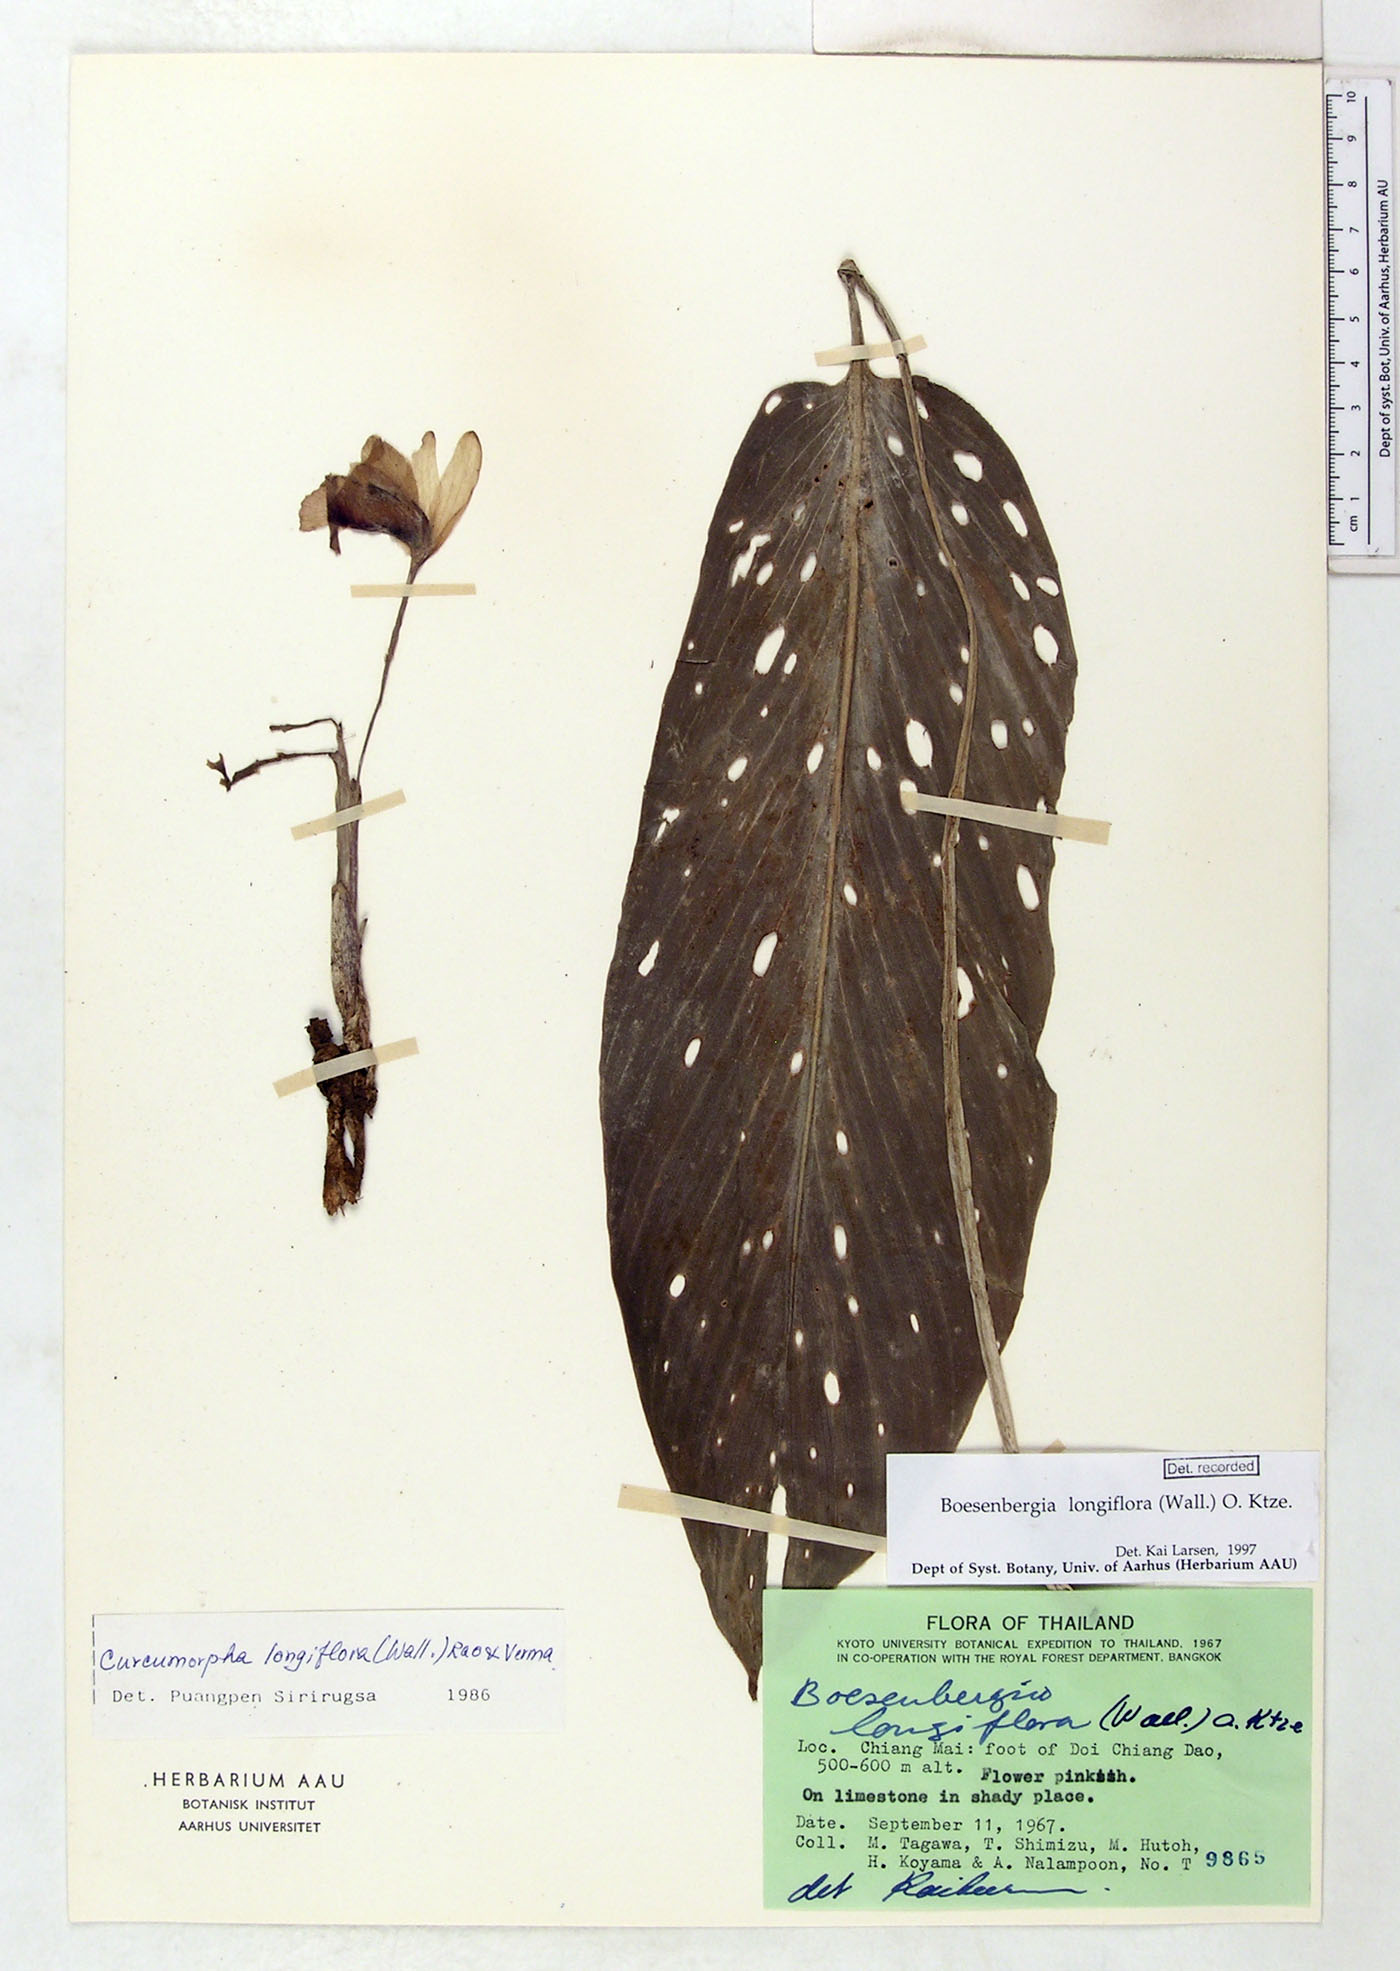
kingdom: Plantae
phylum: Tracheophyta
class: Liliopsida
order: Zingiberales
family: Zingiberaceae
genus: Boesenbergia
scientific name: Boesenbergia longiflora
